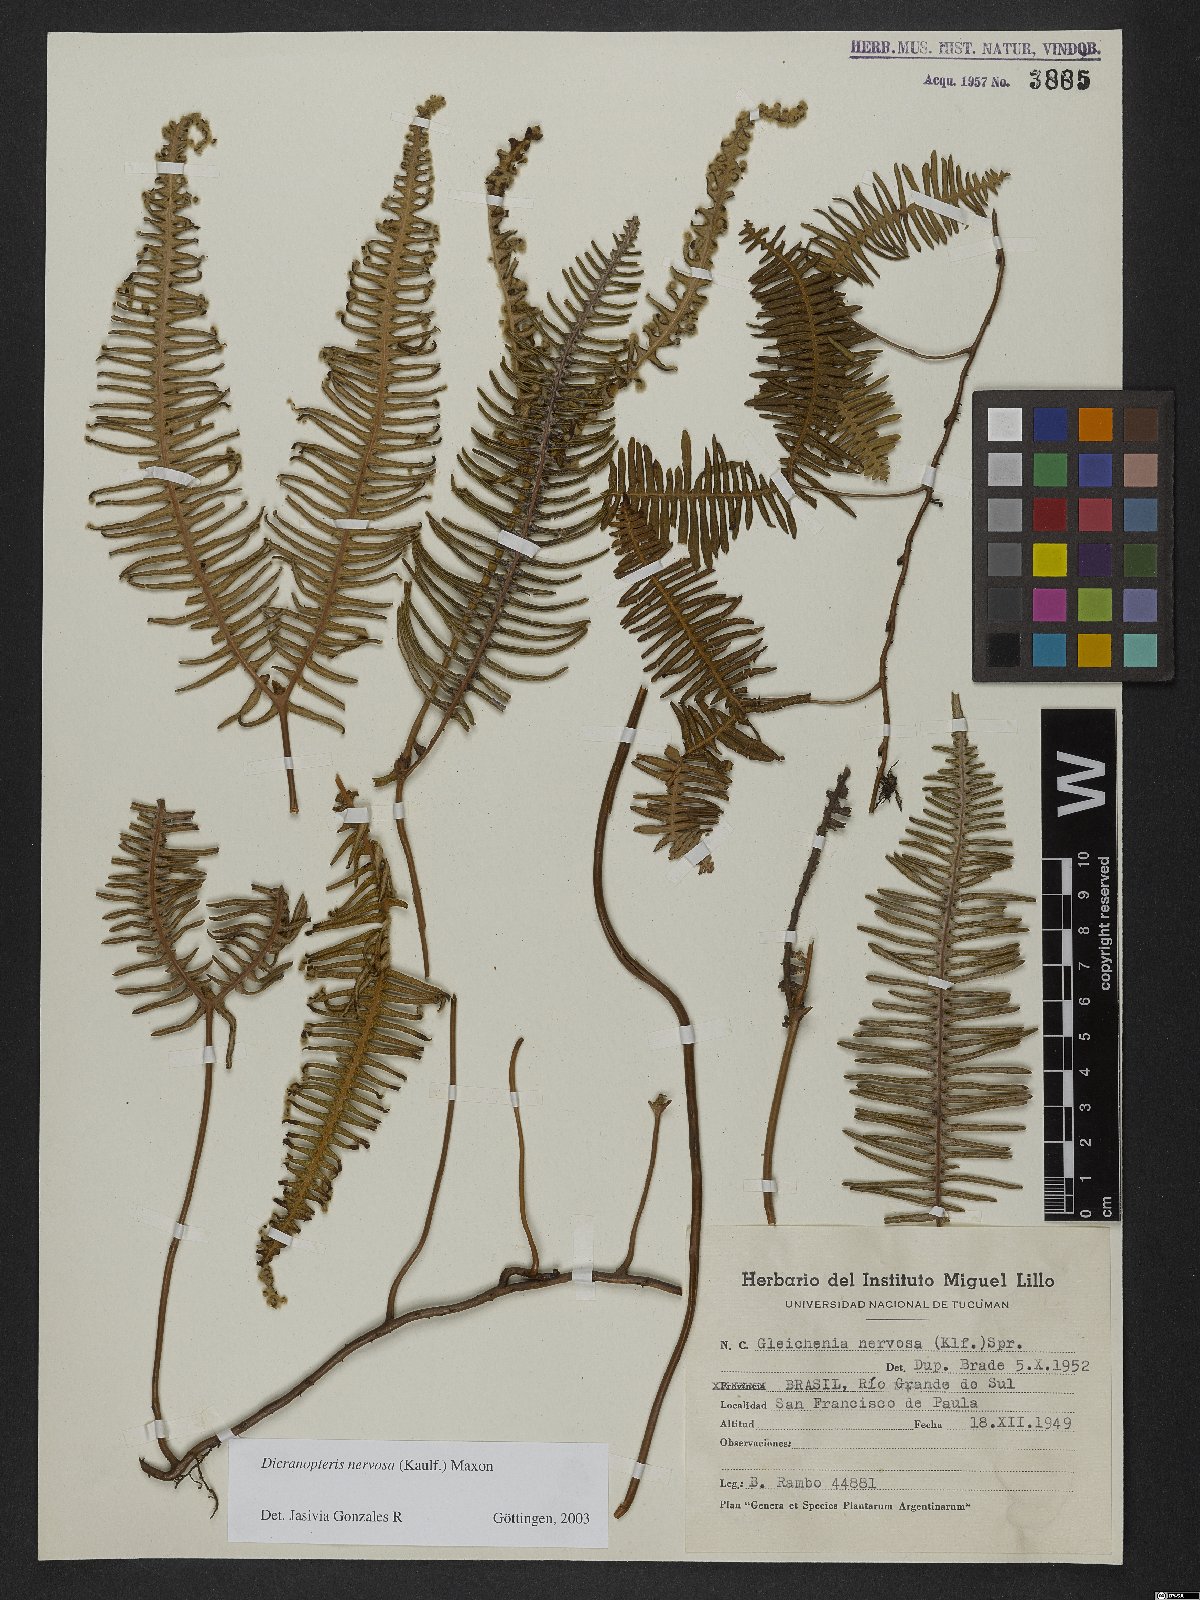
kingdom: Plantae
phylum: Tracheophyta
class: Polypodiopsida
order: Gleicheniales
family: Gleicheniaceae
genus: Dicranopteris
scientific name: Dicranopteris nervosa
